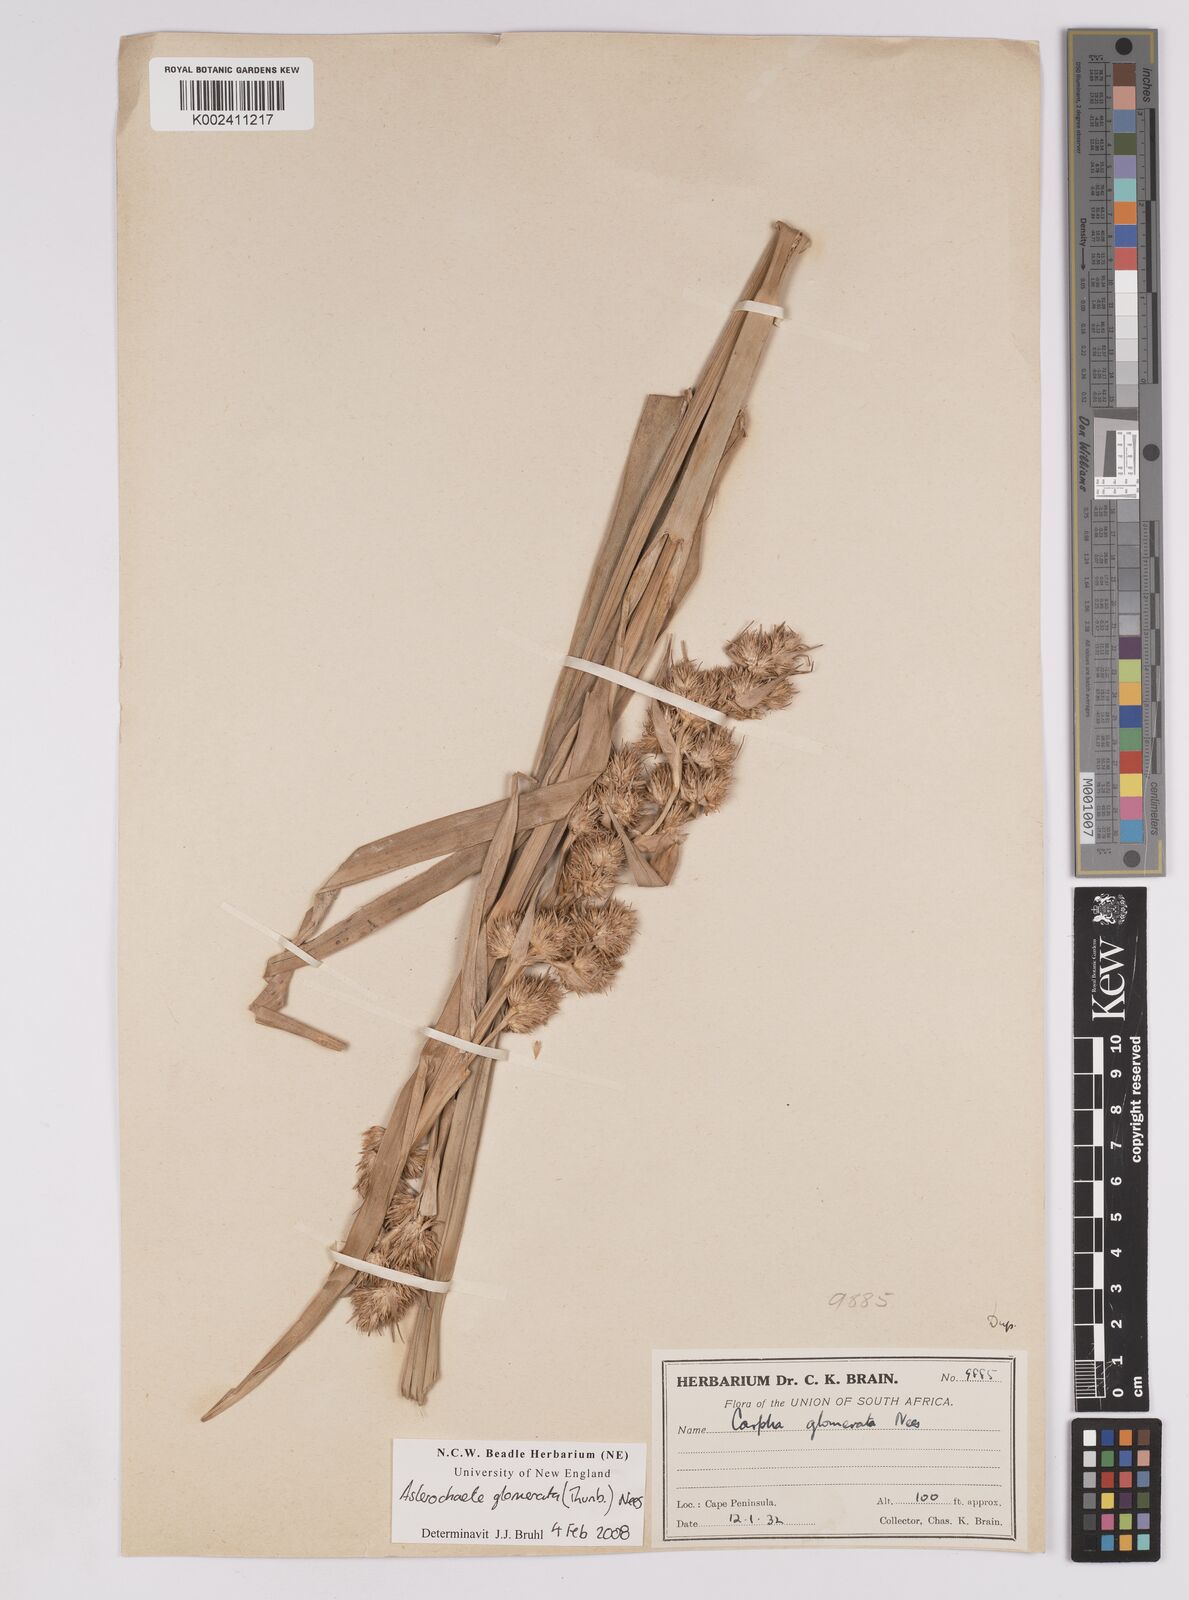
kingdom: Plantae
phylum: Tracheophyta
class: Liliopsida
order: Poales
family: Cyperaceae
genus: Carpha
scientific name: Carpha glomerata
